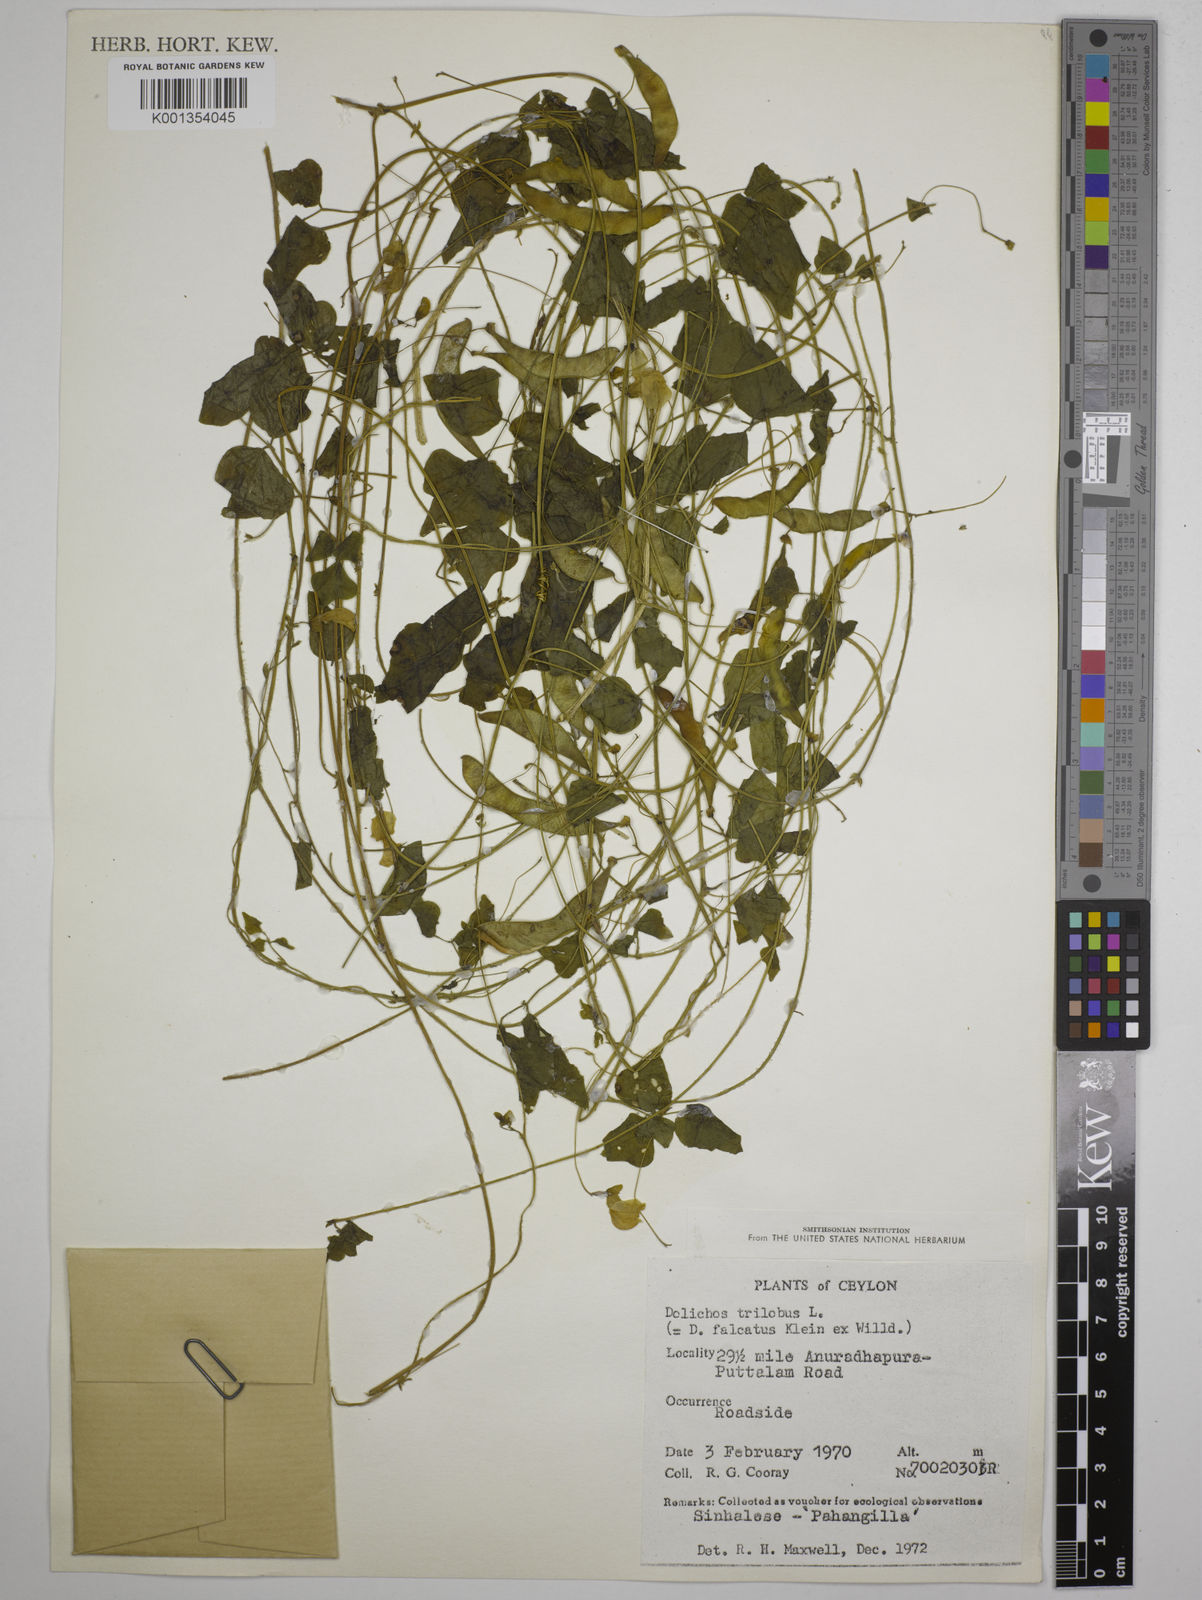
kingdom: Plantae
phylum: Tracheophyta
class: Magnoliopsida
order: Fabales
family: Fabaceae
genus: Dolichos
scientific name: Dolichos
